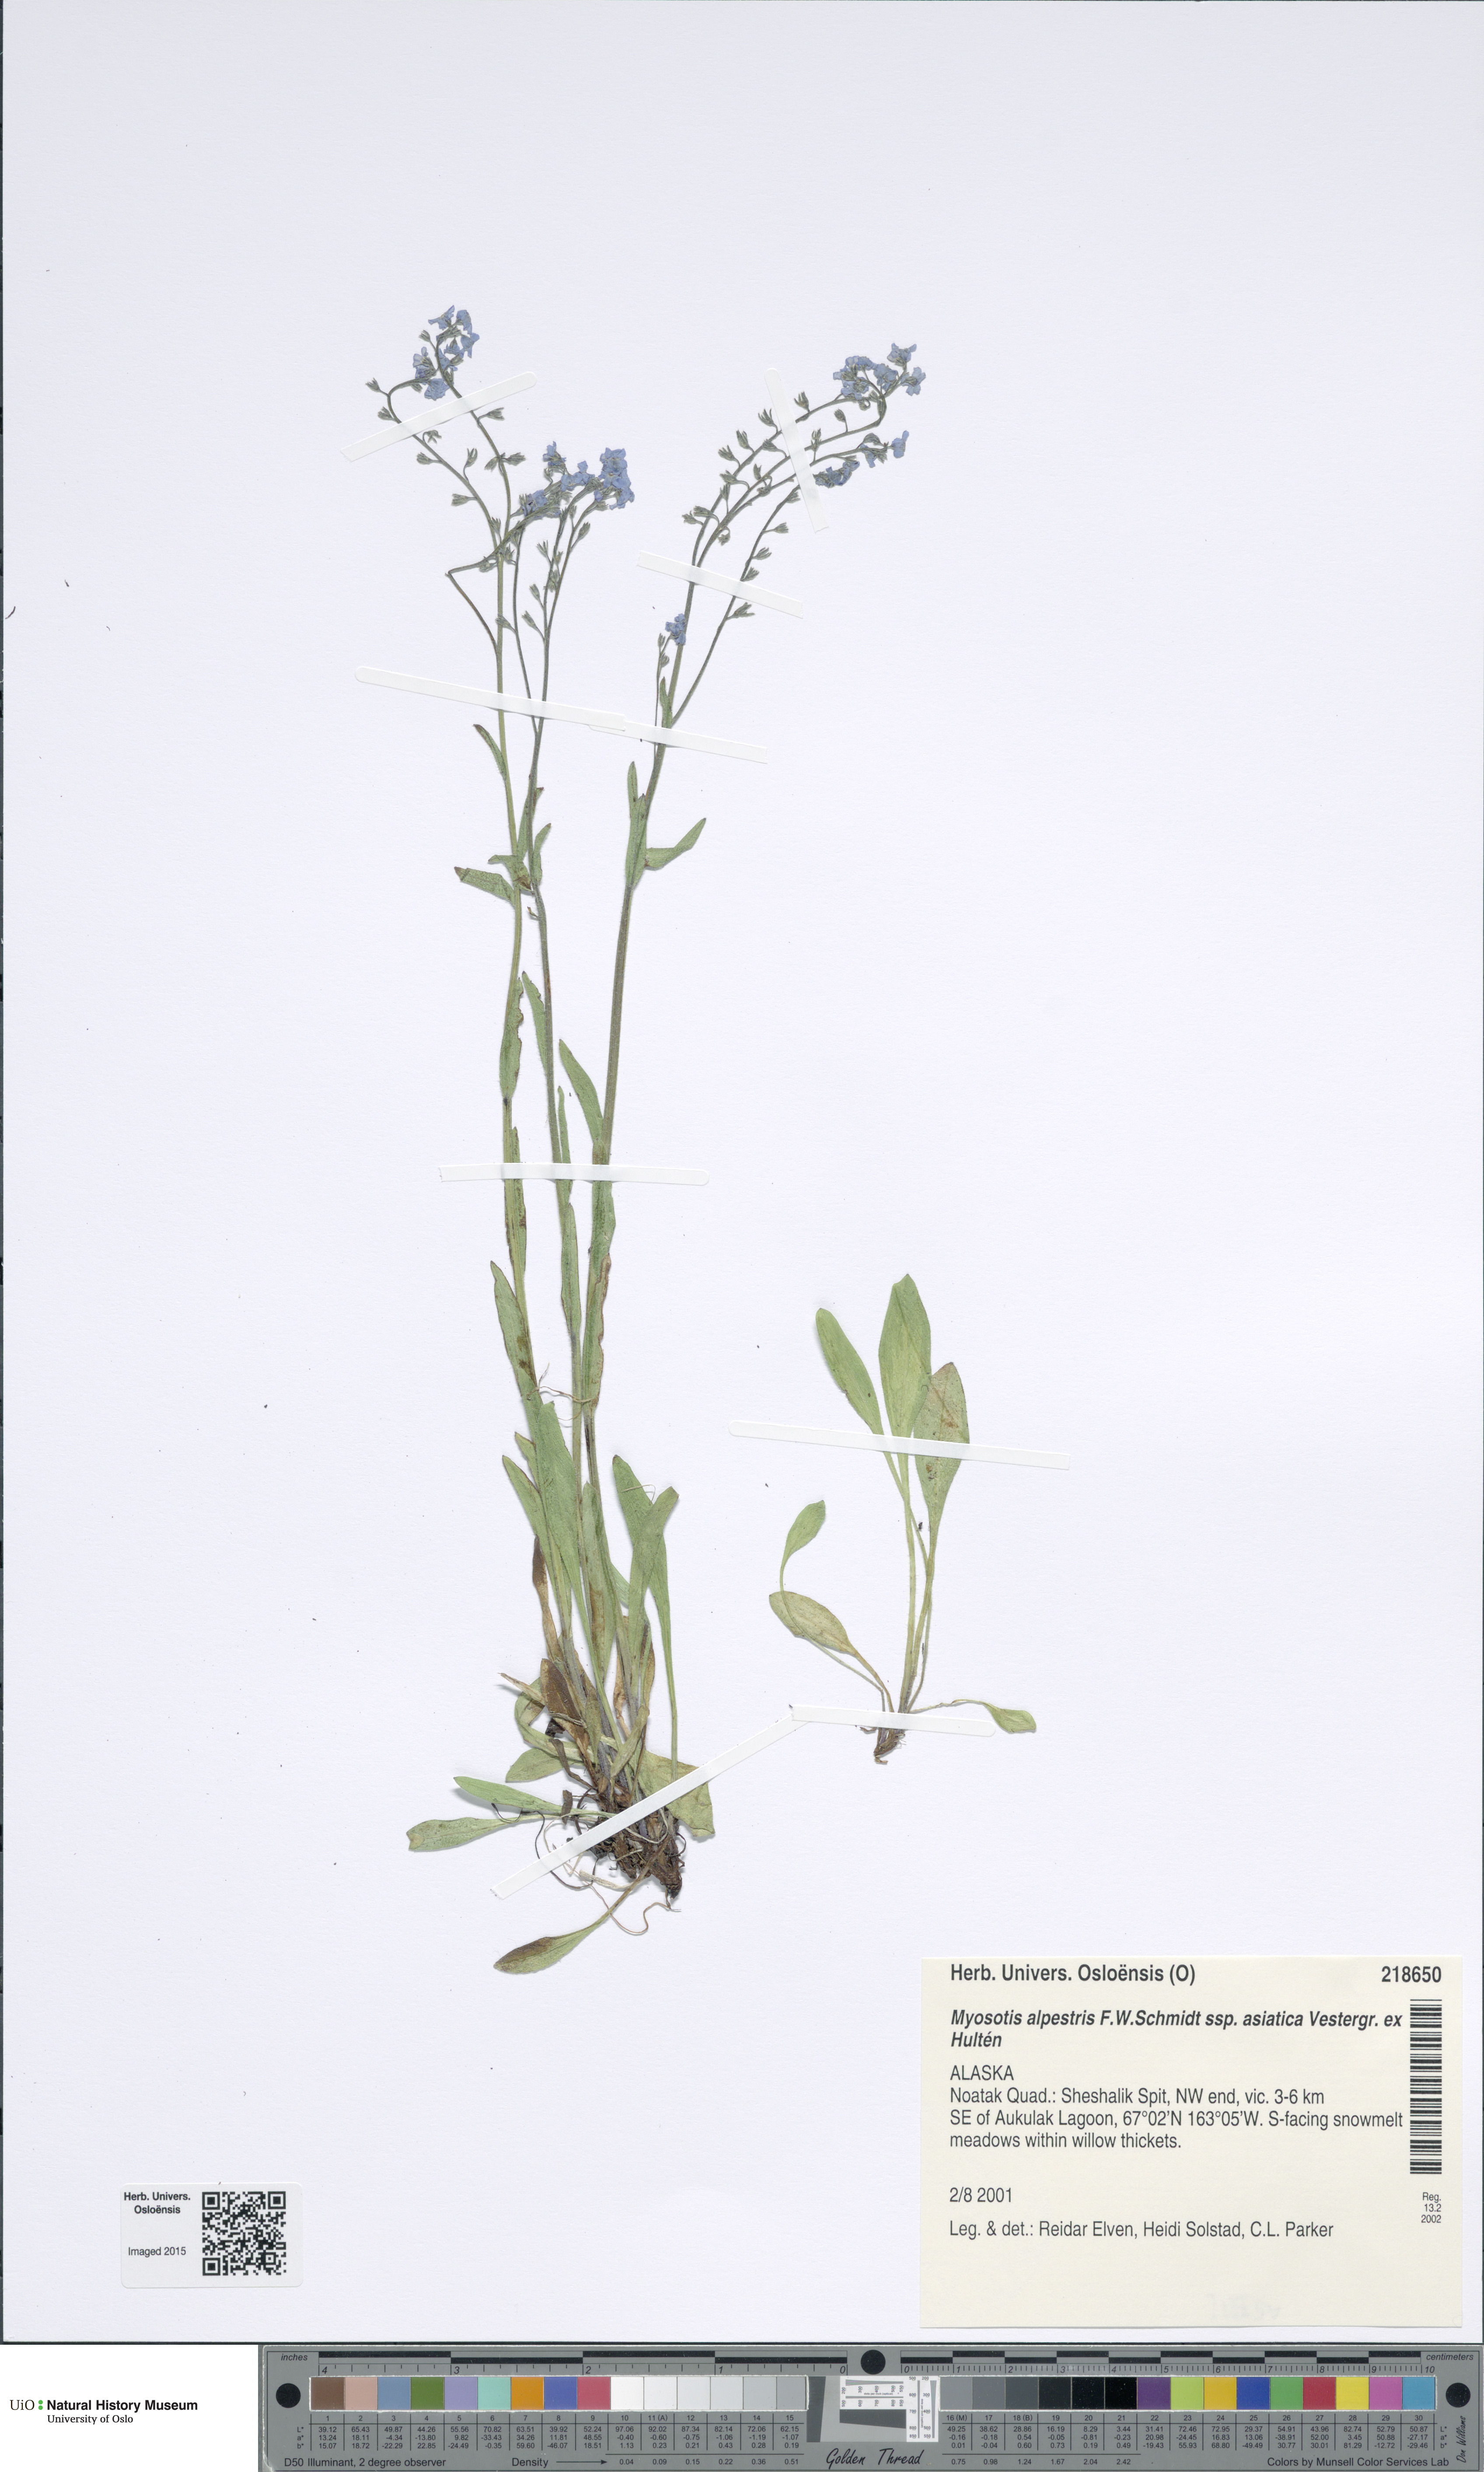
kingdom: Plantae
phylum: Tracheophyta
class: Magnoliopsida
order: Boraginales
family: Boraginaceae
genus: Myosotis
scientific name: Myosotis asiatica
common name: Asian forget-me-not
